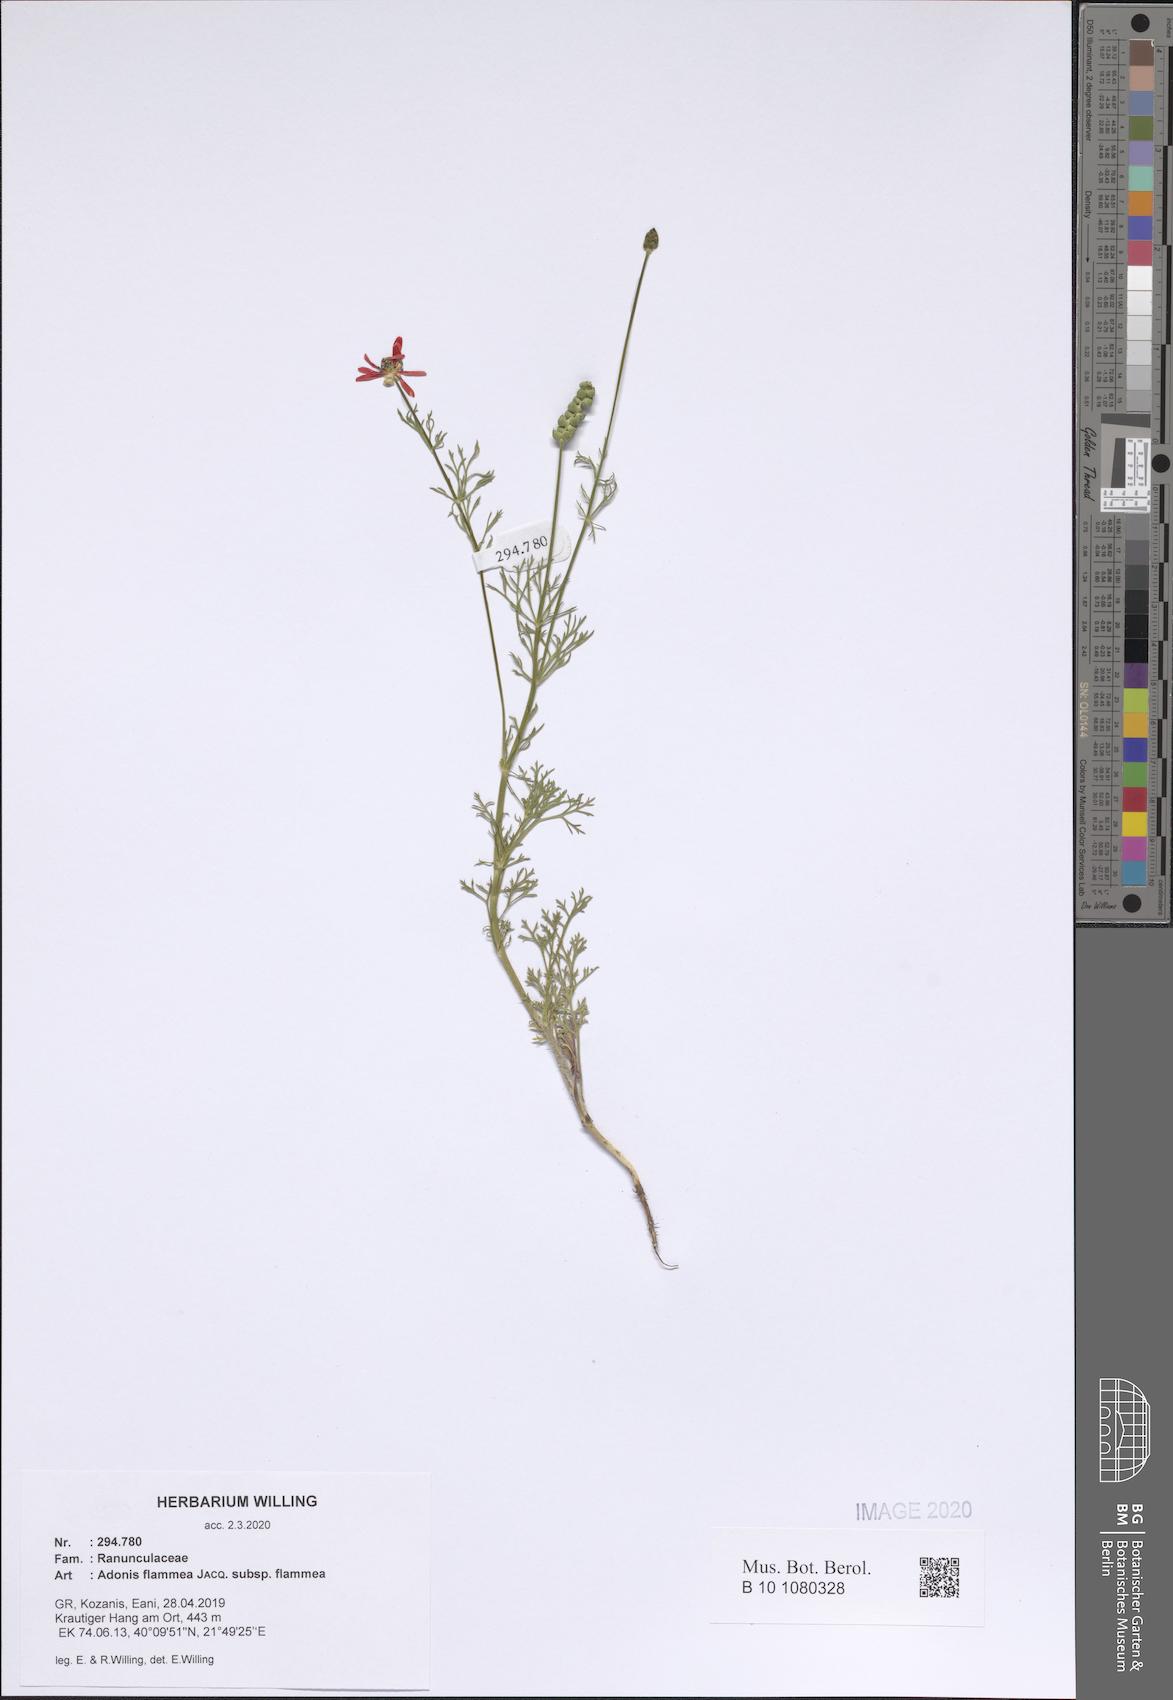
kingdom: Plantae
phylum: Tracheophyta
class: Magnoliopsida
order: Ranunculales
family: Ranunculaceae
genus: Adonis
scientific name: Adonis flammea
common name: Large pheasant's-eye
